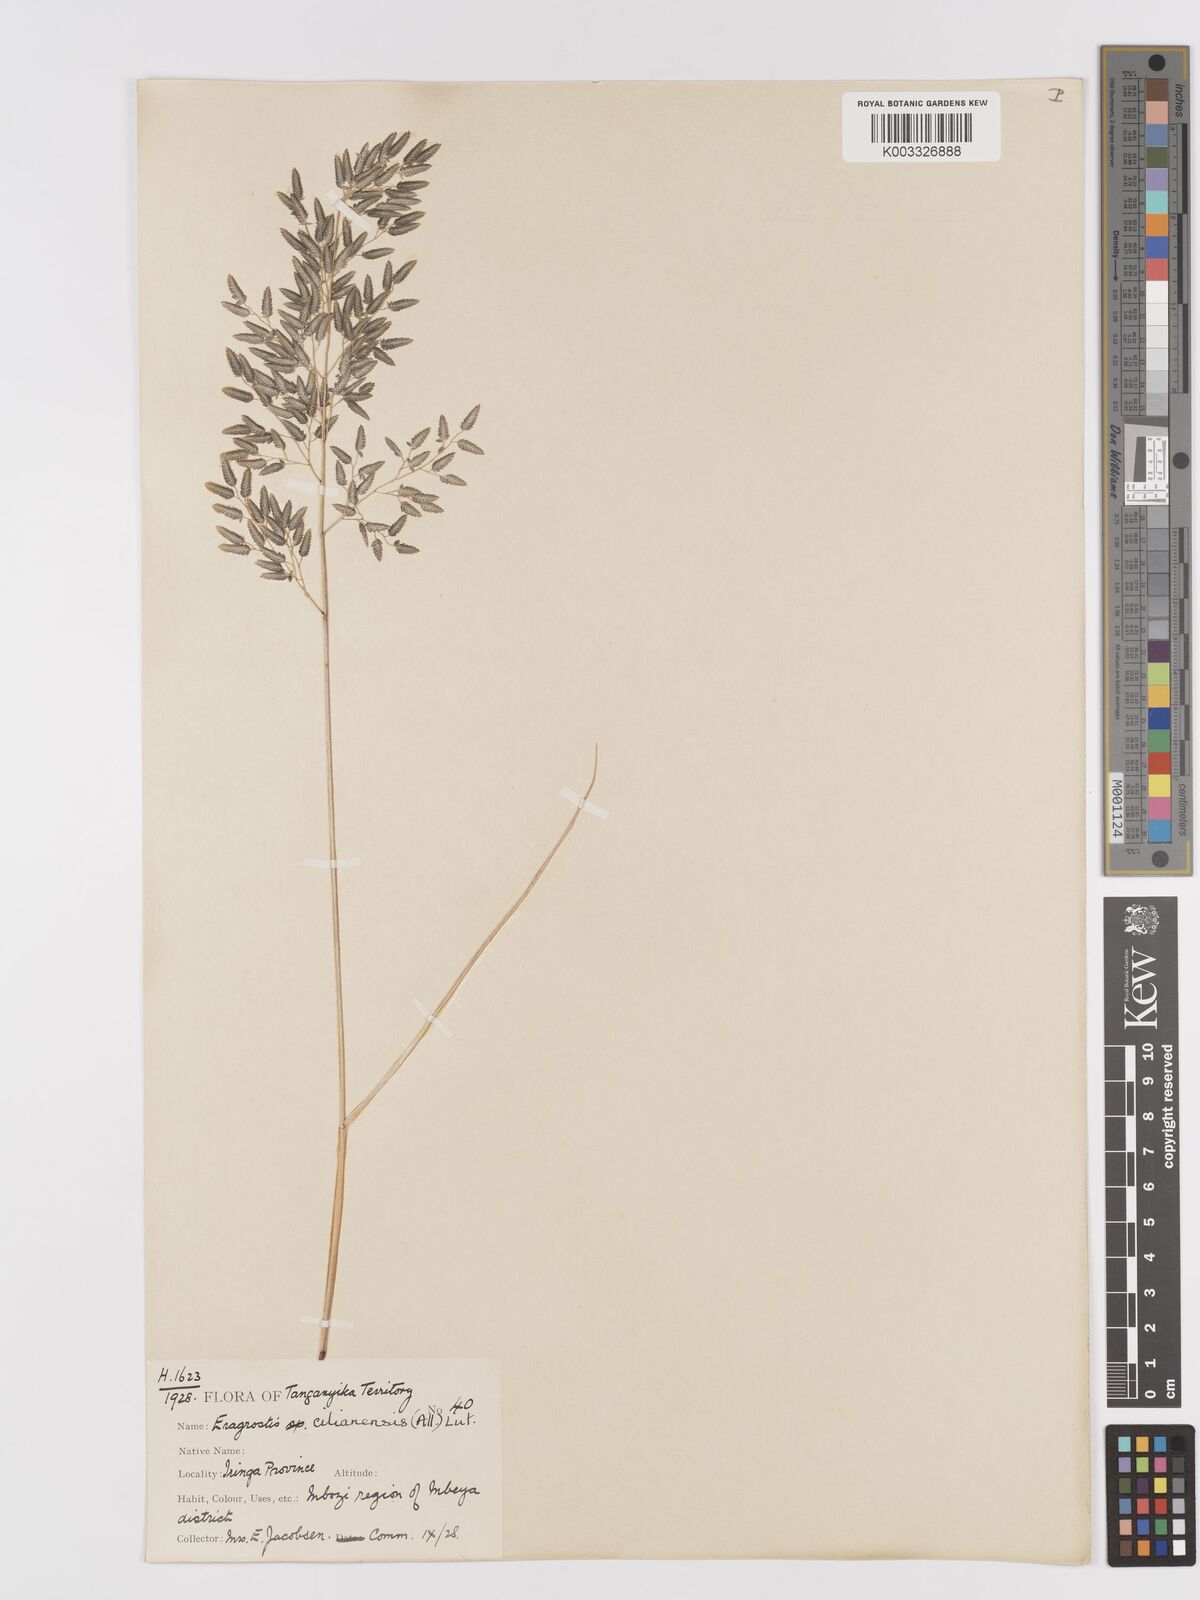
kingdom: Plantae
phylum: Tracheophyta
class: Liliopsida
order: Poales
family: Poaceae
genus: Eragrostis
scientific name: Eragrostis cilianensis
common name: Stinkgrass
